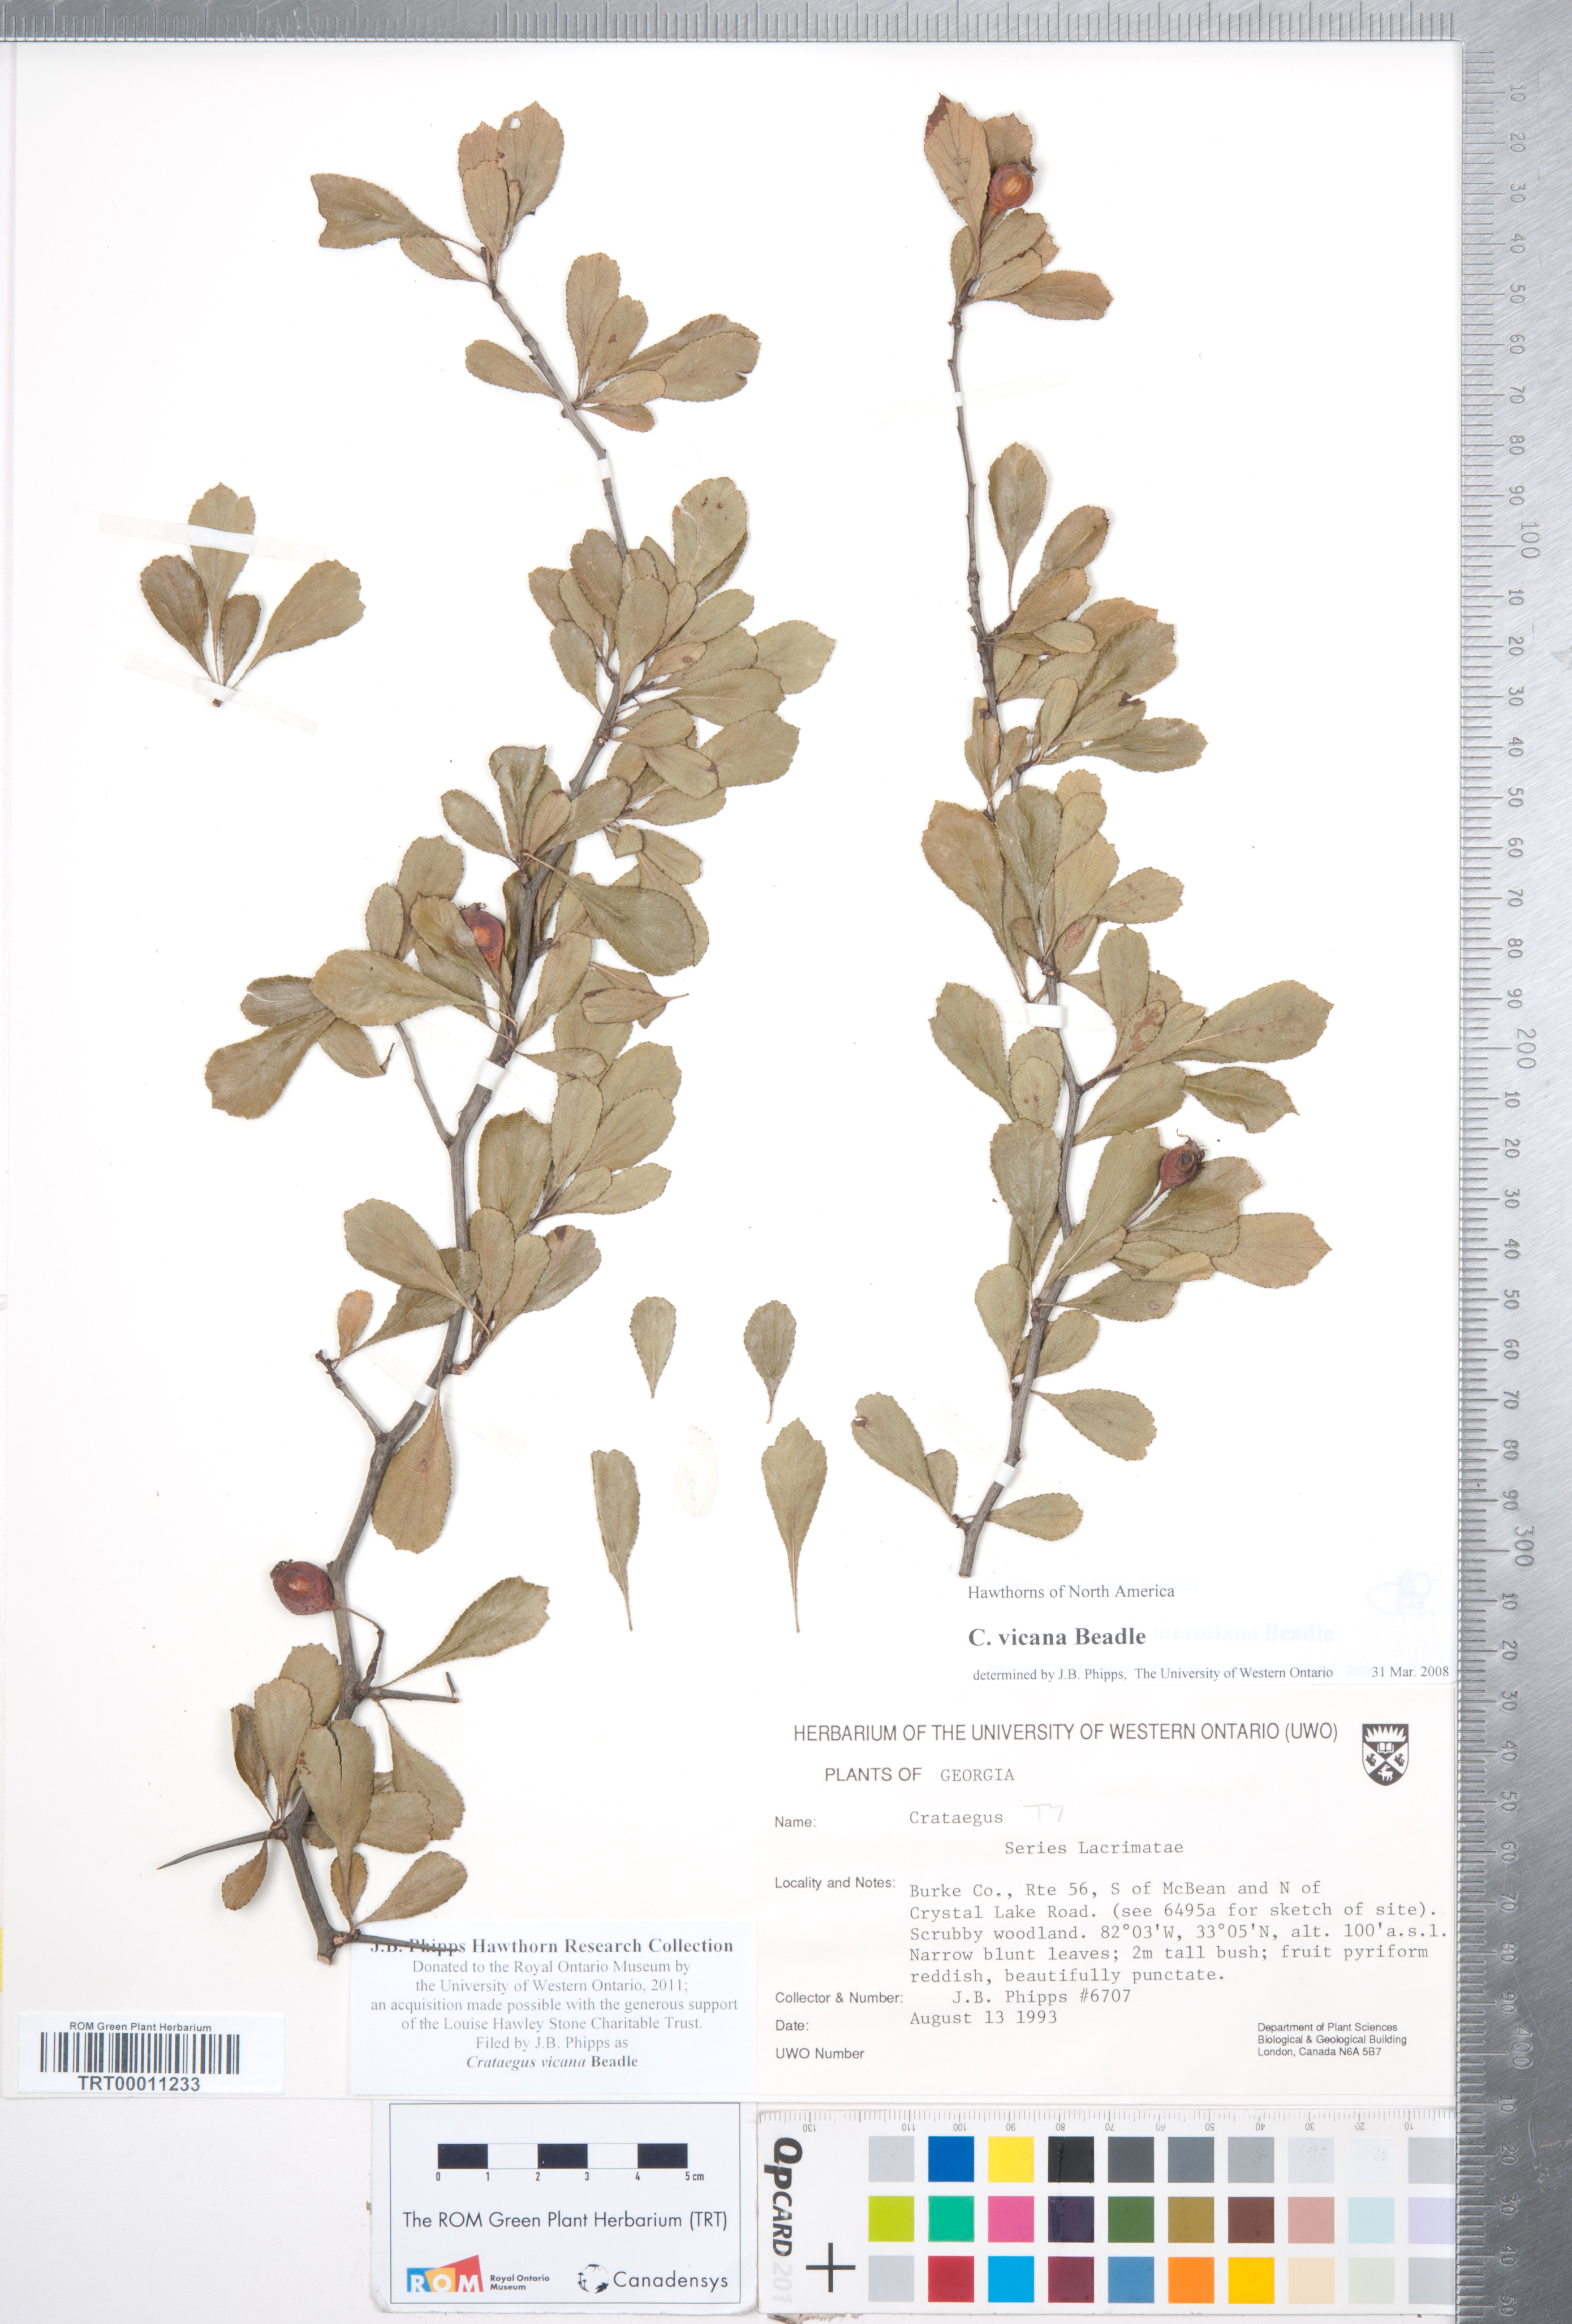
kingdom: Plantae
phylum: Tracheophyta
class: Magnoliopsida
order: Rosales
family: Rosaceae
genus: Crataegus
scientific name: Crataegus lassa
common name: Florida hawthorn
